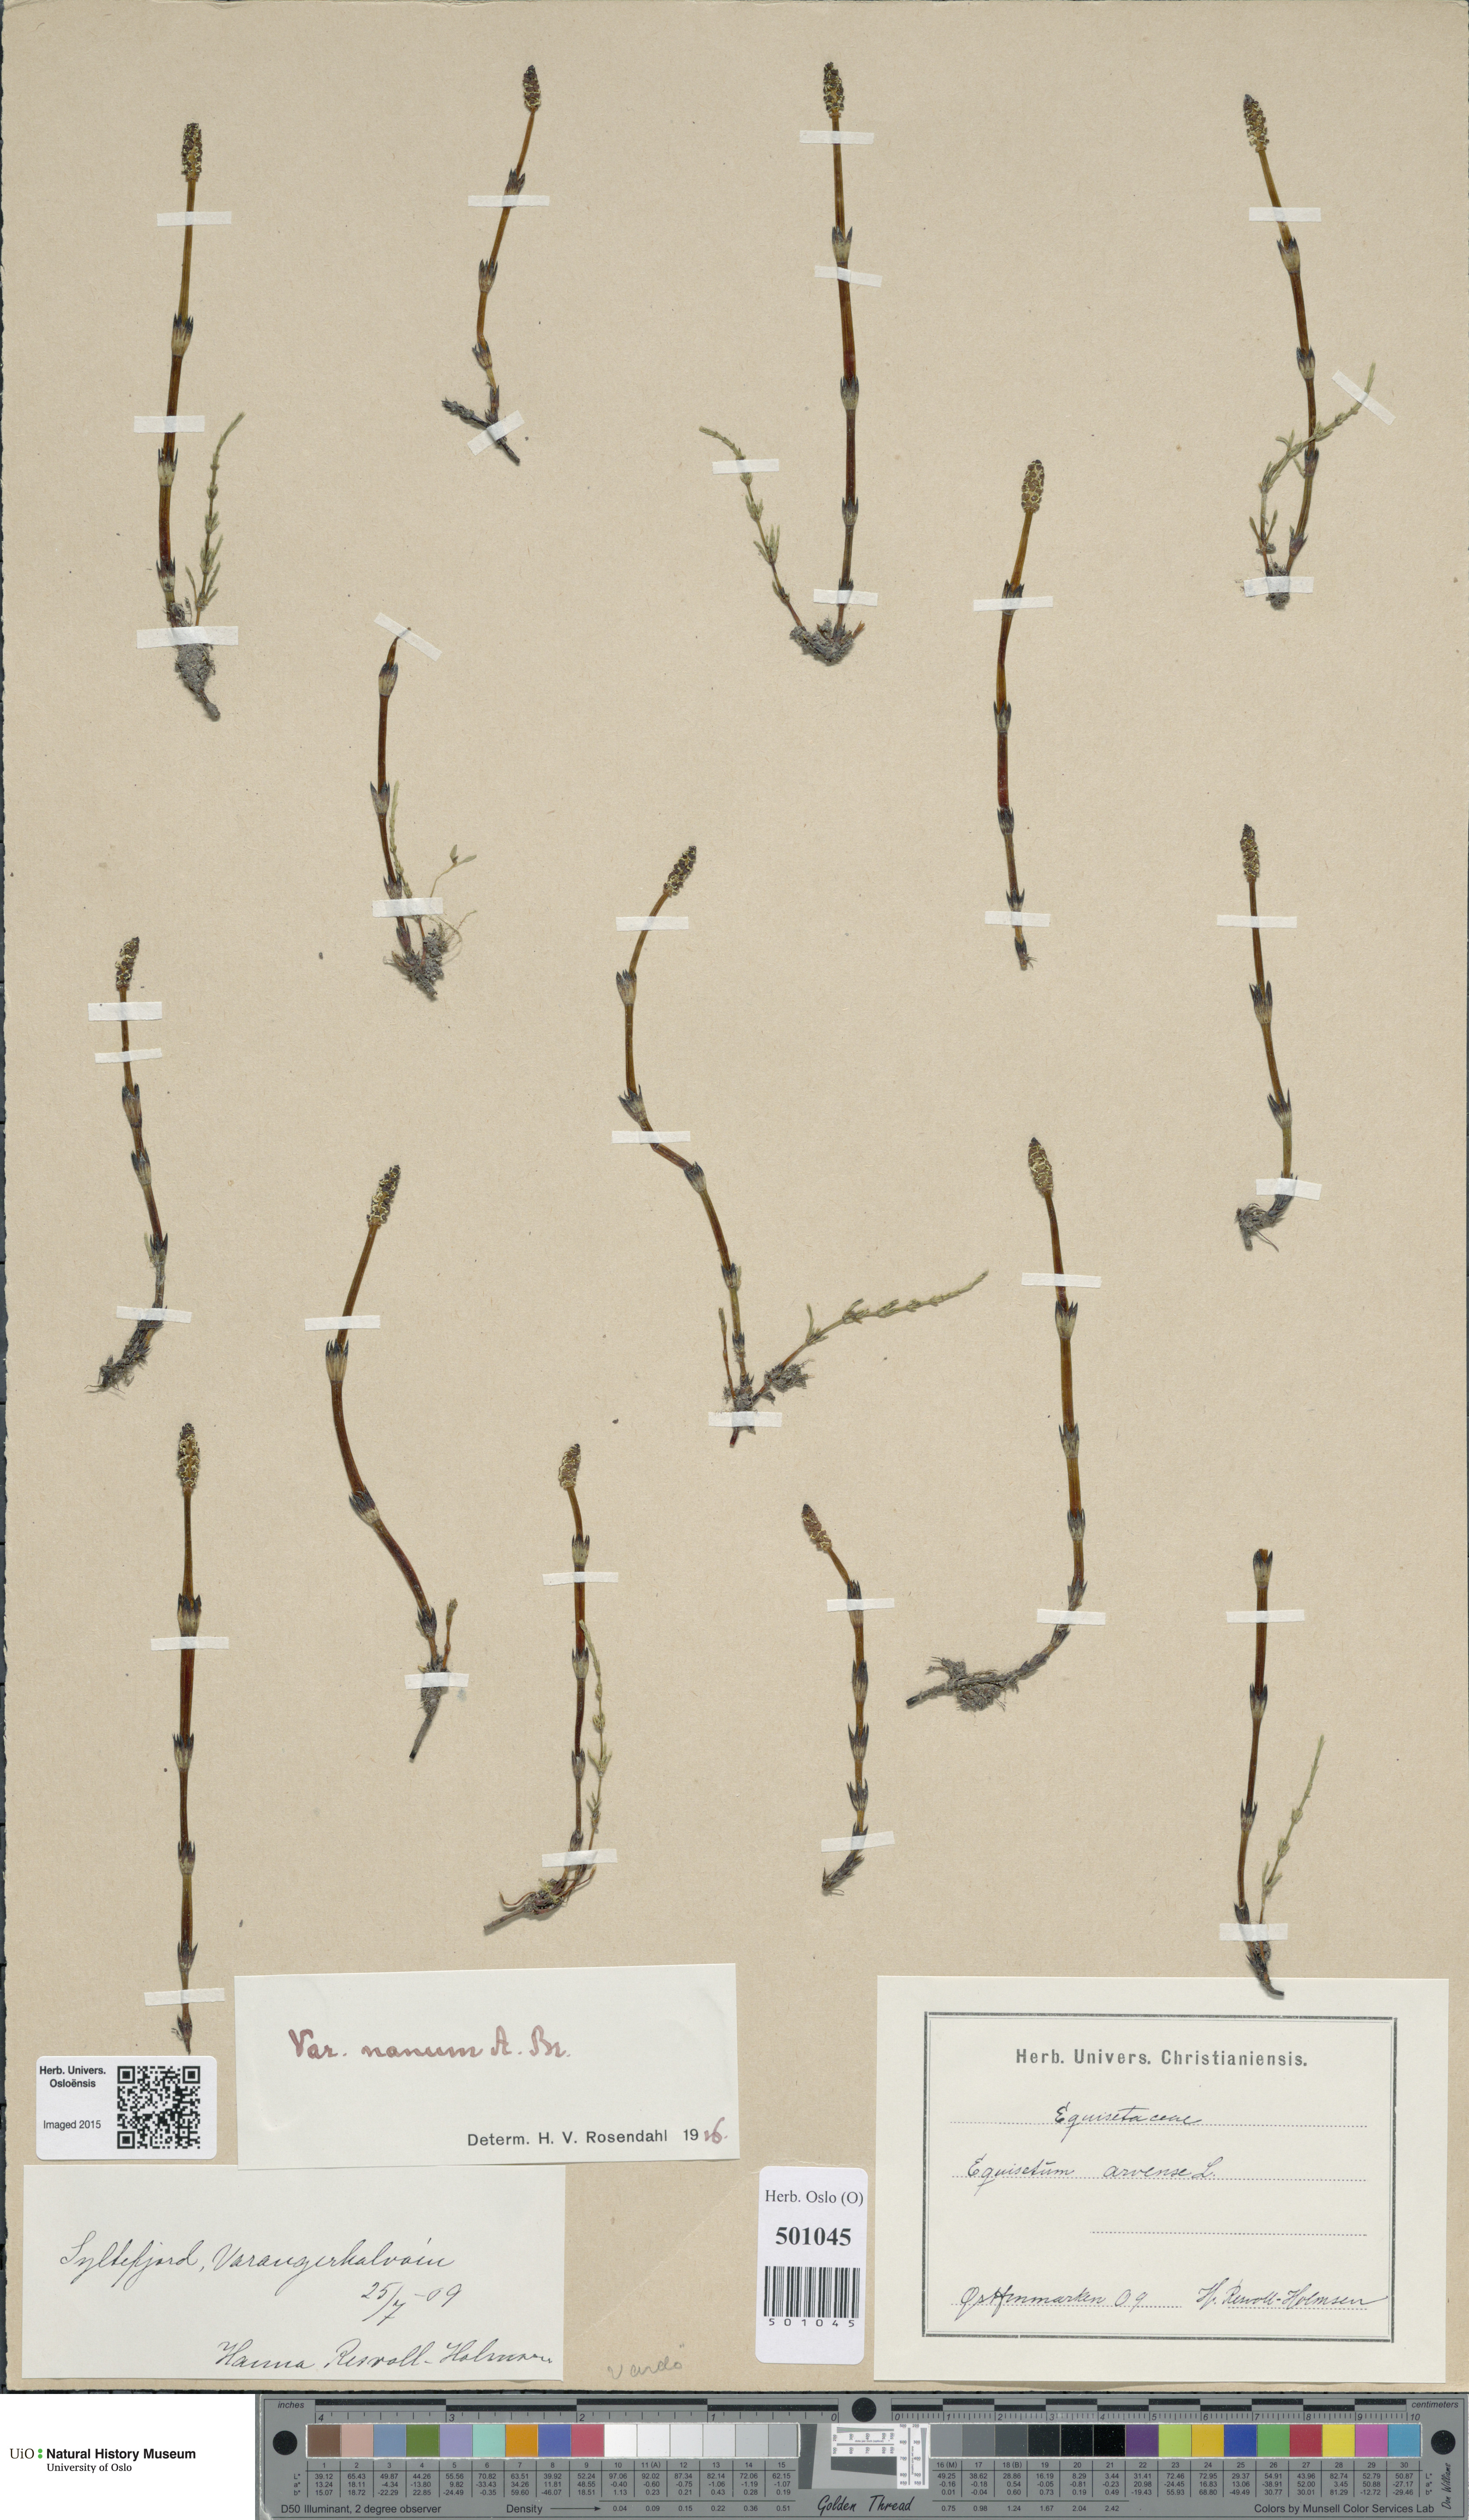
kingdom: Plantae
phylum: Tracheophyta
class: Polypodiopsida
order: Equisetales
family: Equisetaceae
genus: Equisetum
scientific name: Equisetum arvense
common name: Field horsetail
